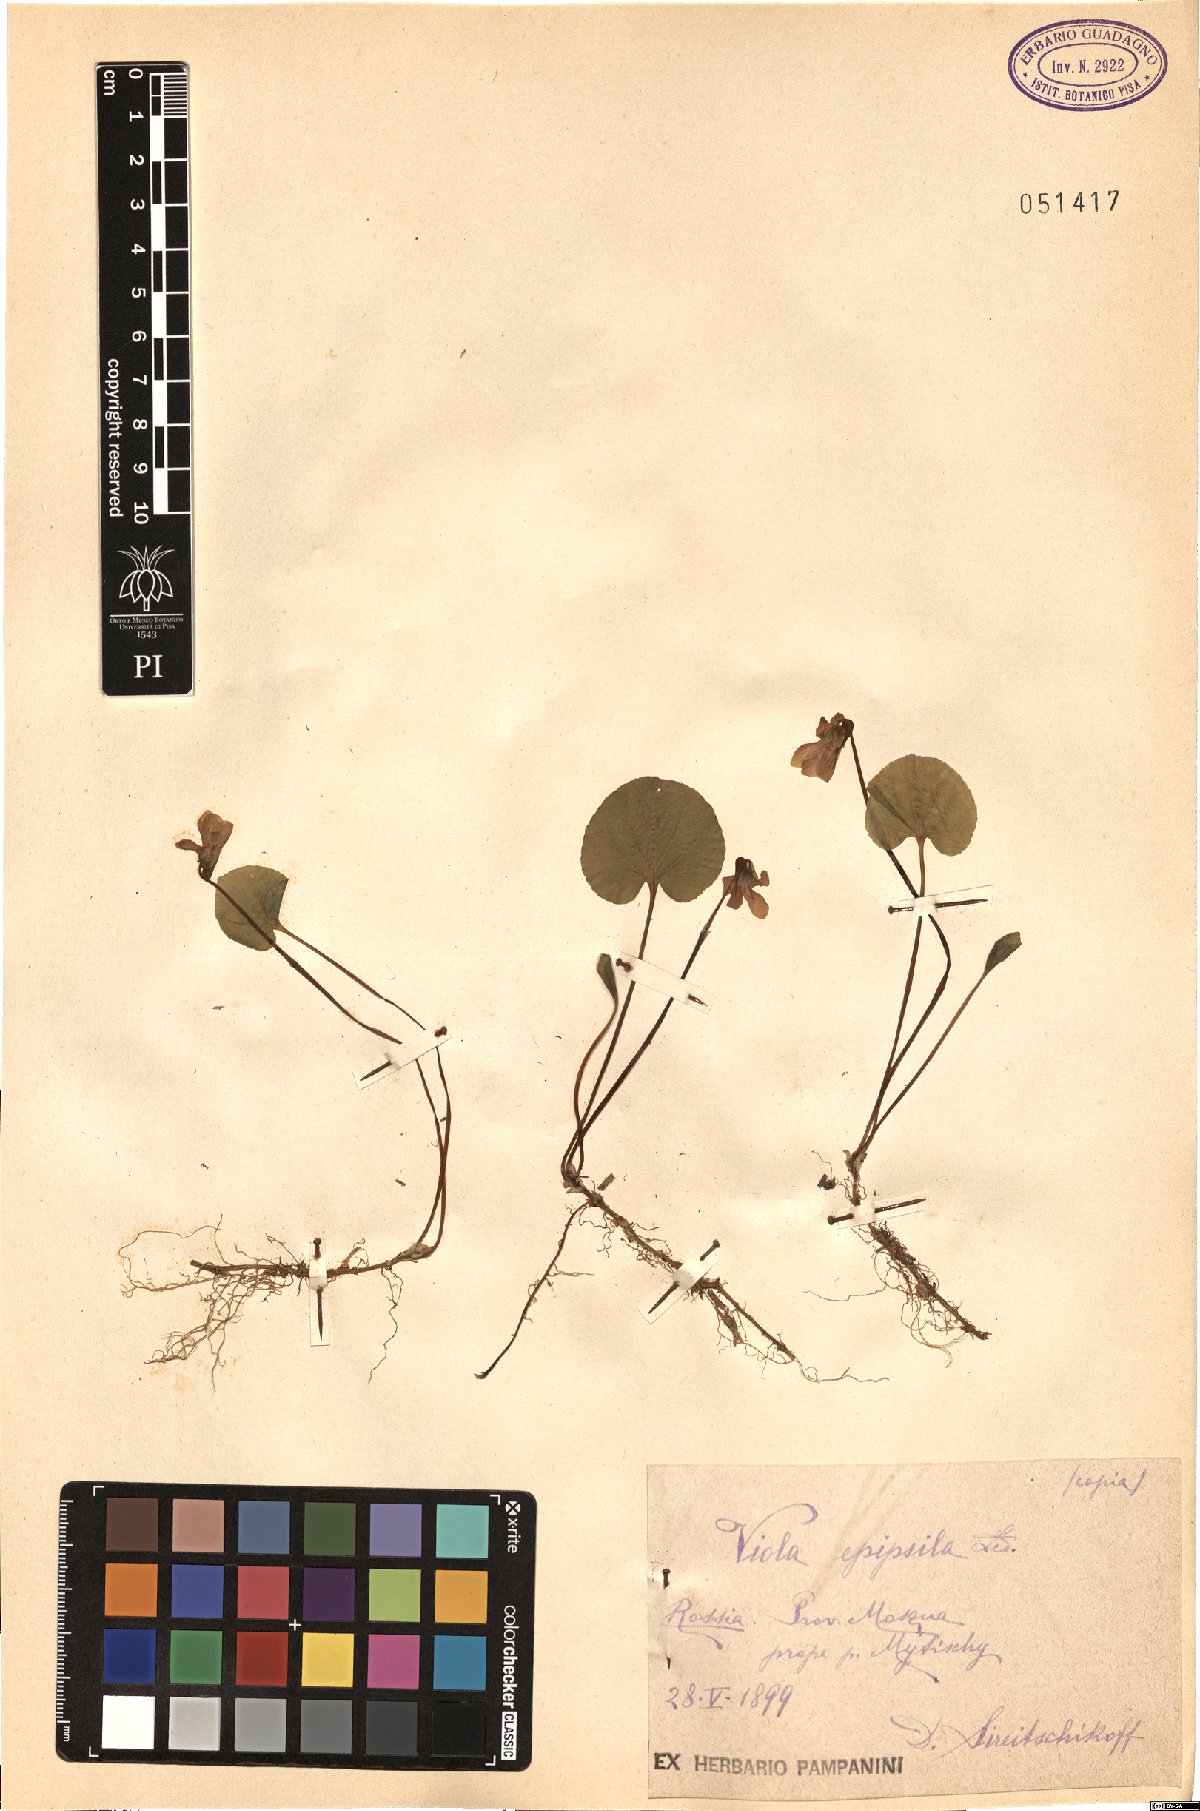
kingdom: Plantae
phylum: Tracheophyta
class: Magnoliopsida
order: Malpighiales
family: Violaceae
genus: Viola
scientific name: Viola epipsila
